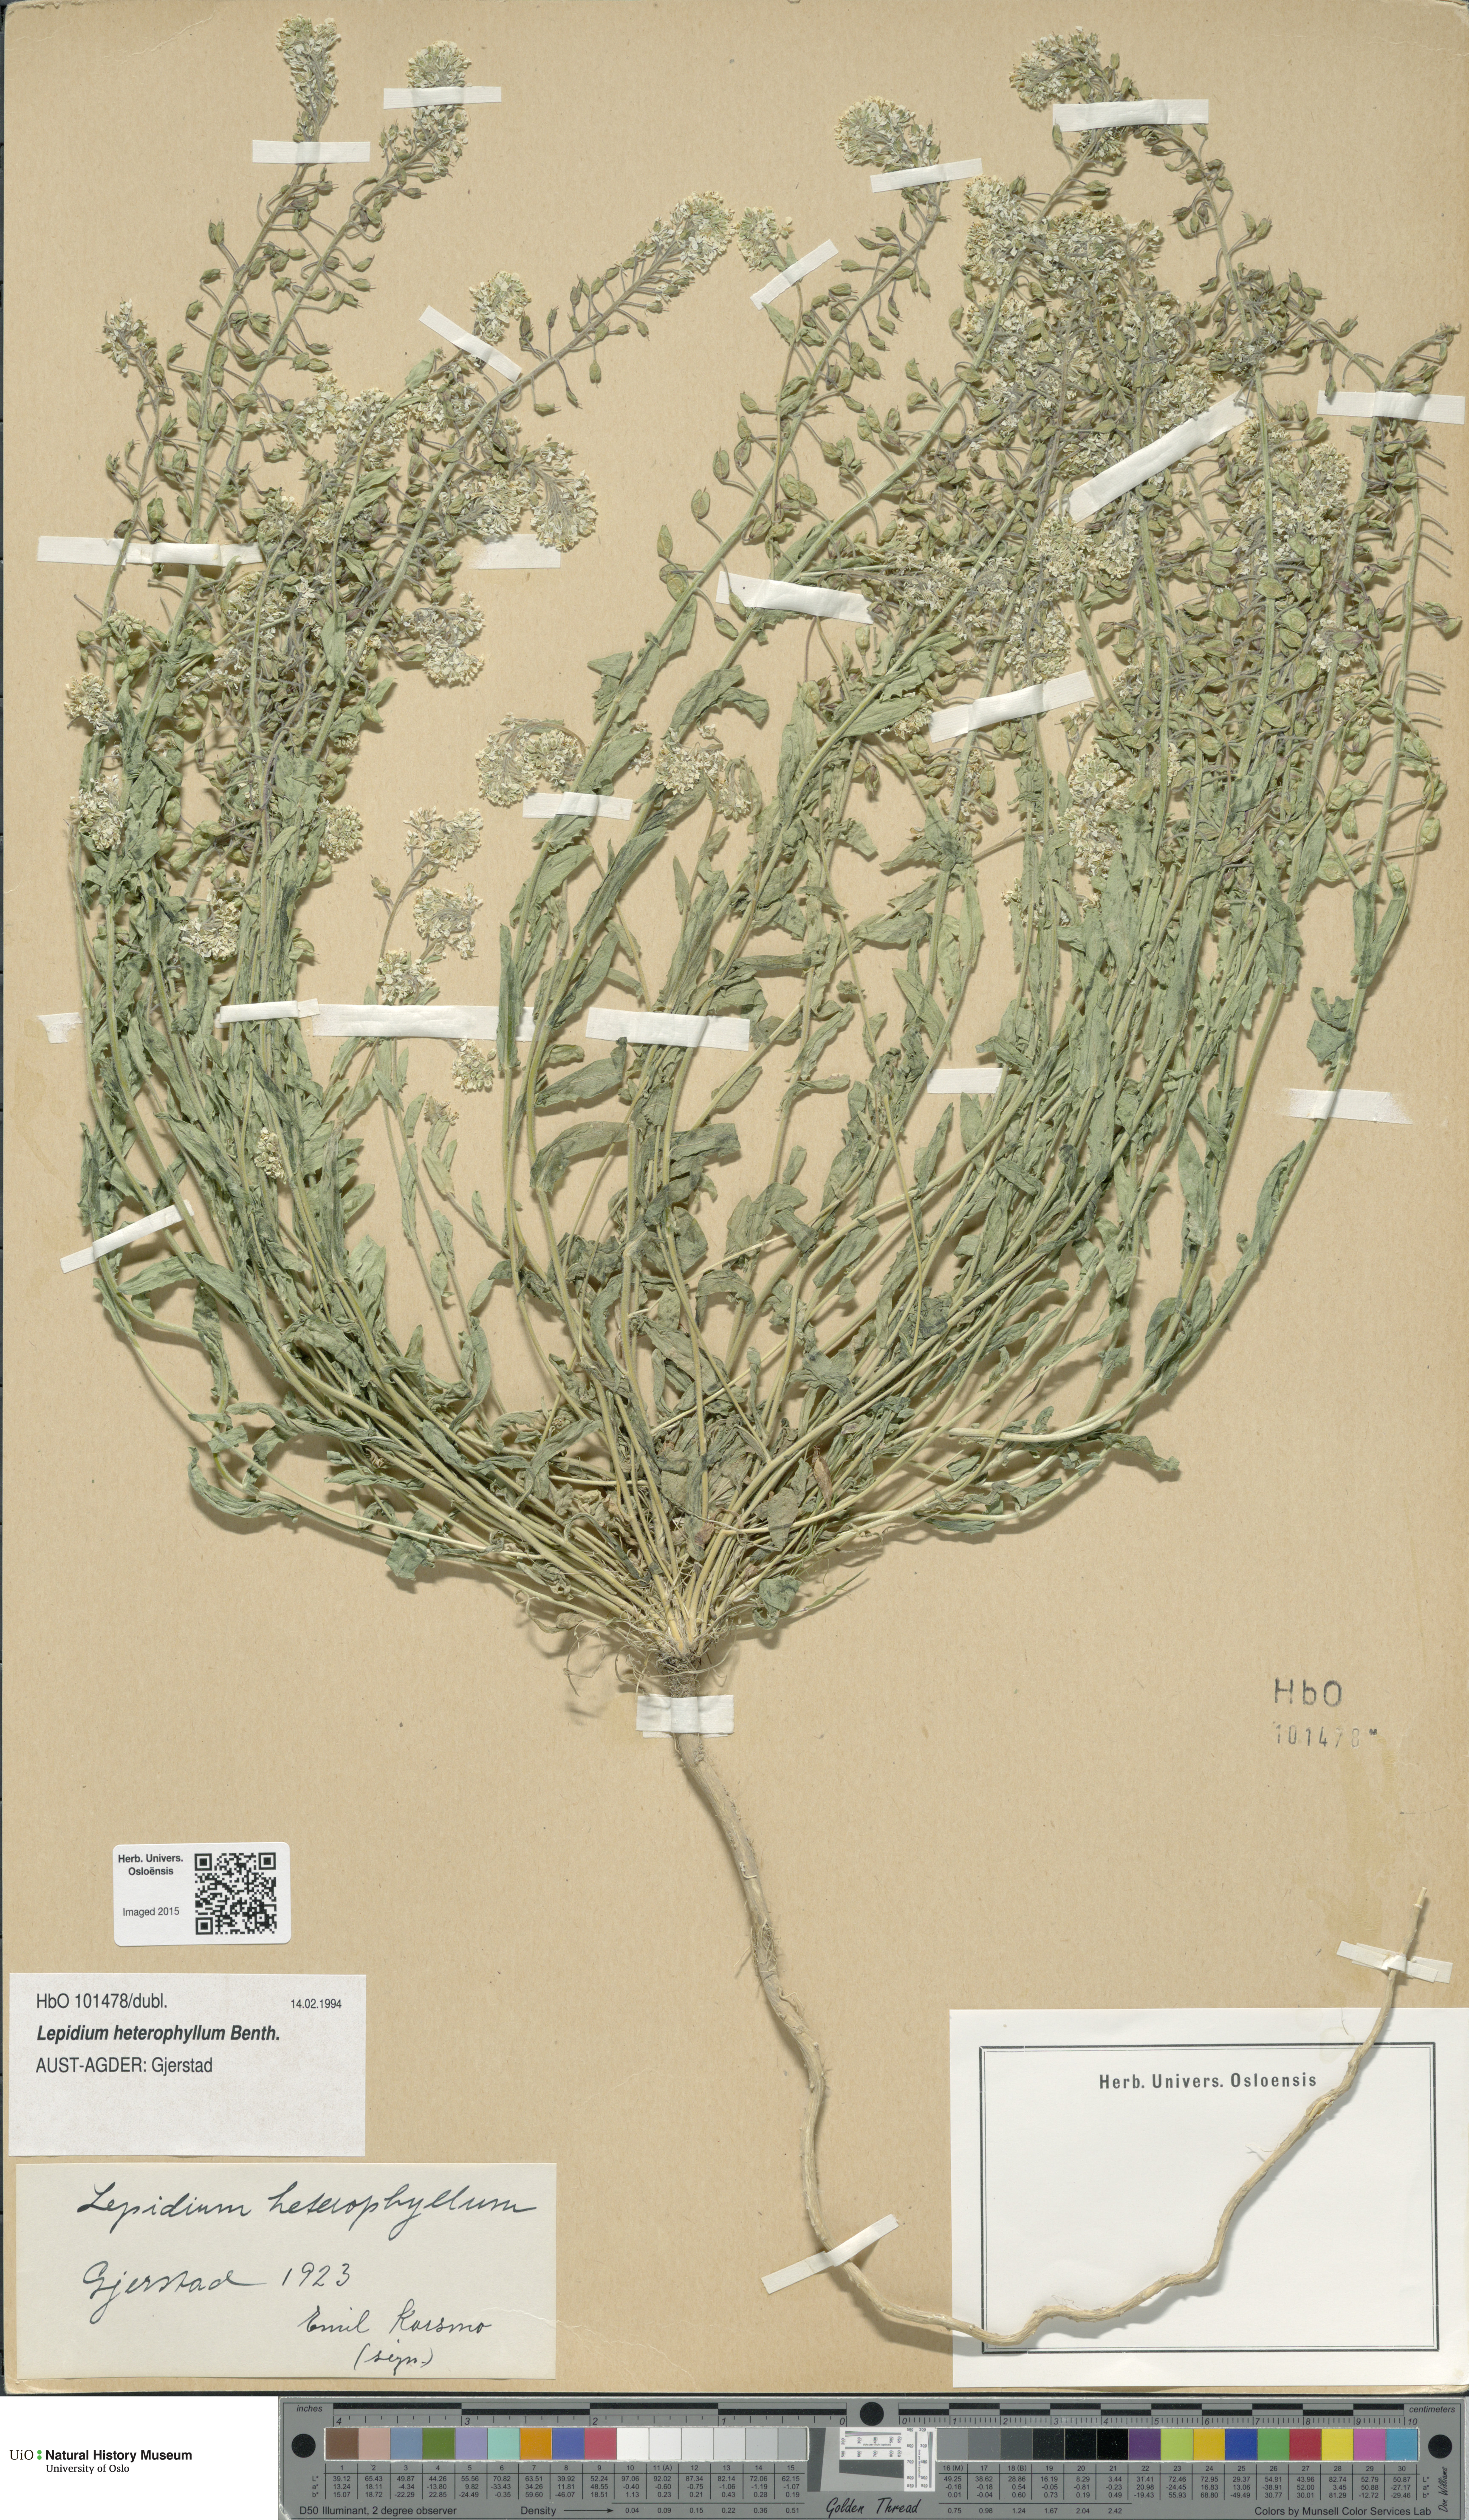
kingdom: Plantae
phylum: Tracheophyta
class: Magnoliopsida
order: Brassicales
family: Brassicaceae
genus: Lepidium
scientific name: Lepidium heterophyllum
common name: Smith's pepperwort
